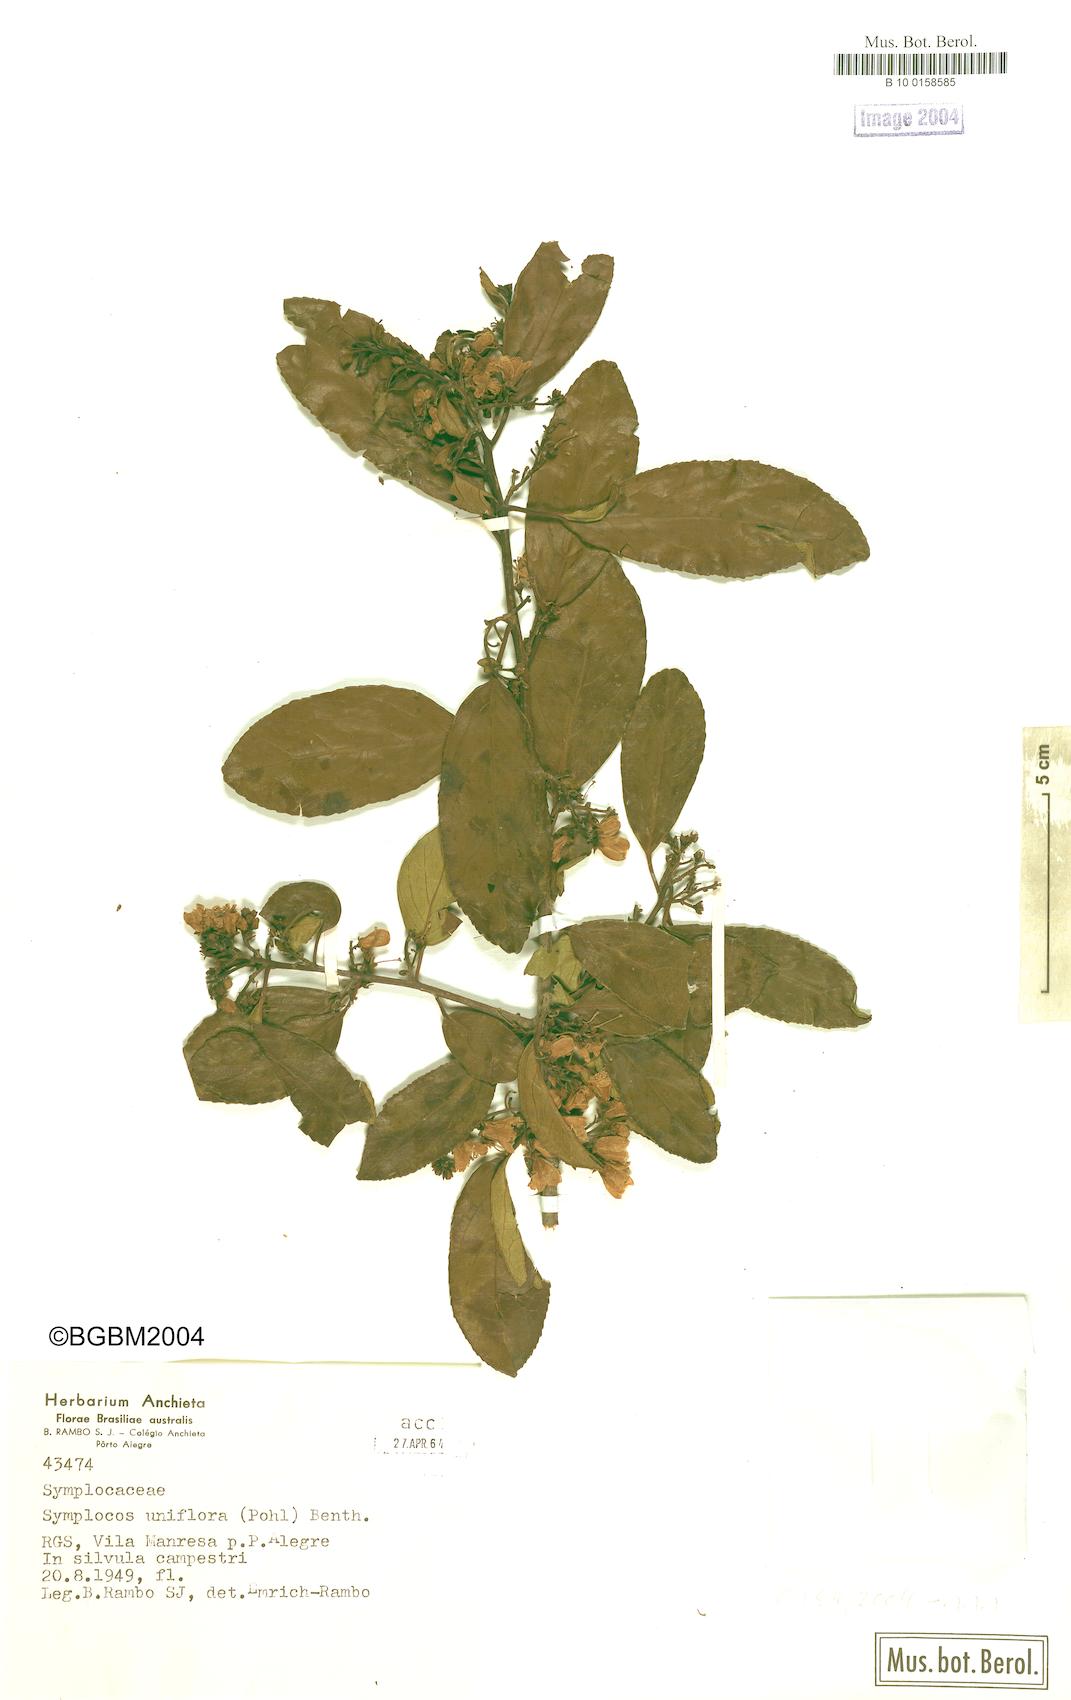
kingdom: Plantae
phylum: Tracheophyta
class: Magnoliopsida
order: Ericales
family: Symplocaceae
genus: Symplocos
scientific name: Symplocos uniflora
